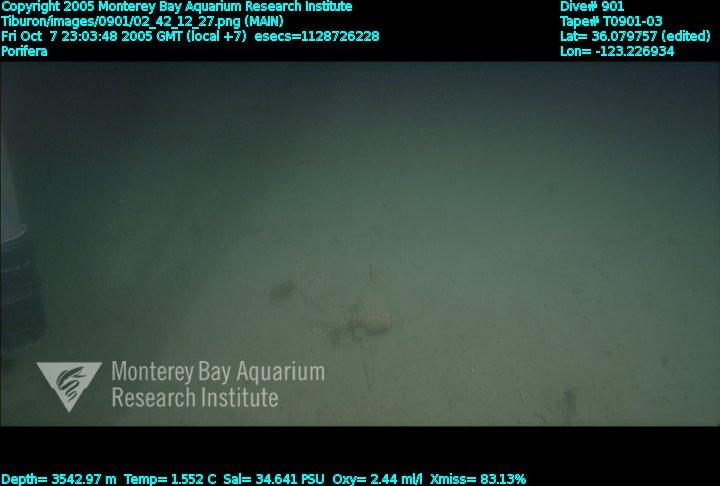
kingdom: Animalia
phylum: Porifera
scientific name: Porifera
